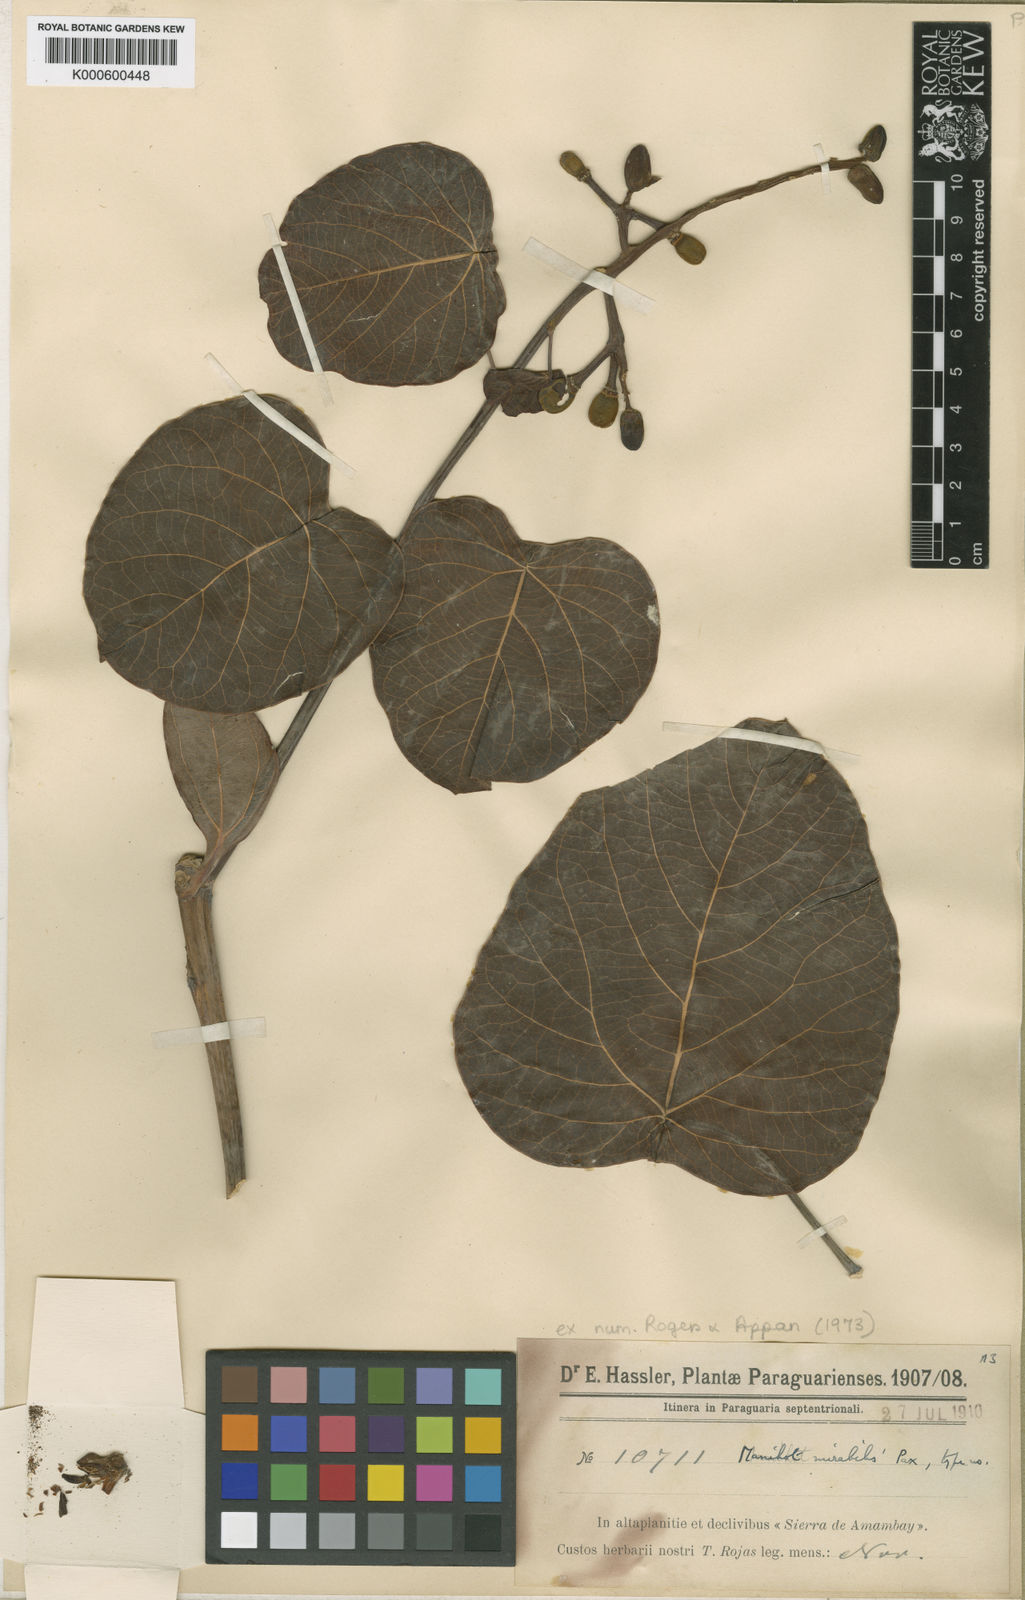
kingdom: Plantae
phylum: Tracheophyta
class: Magnoliopsida
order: Malpighiales
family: Euphorbiaceae
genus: Manihot
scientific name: Manihot mirabilis
